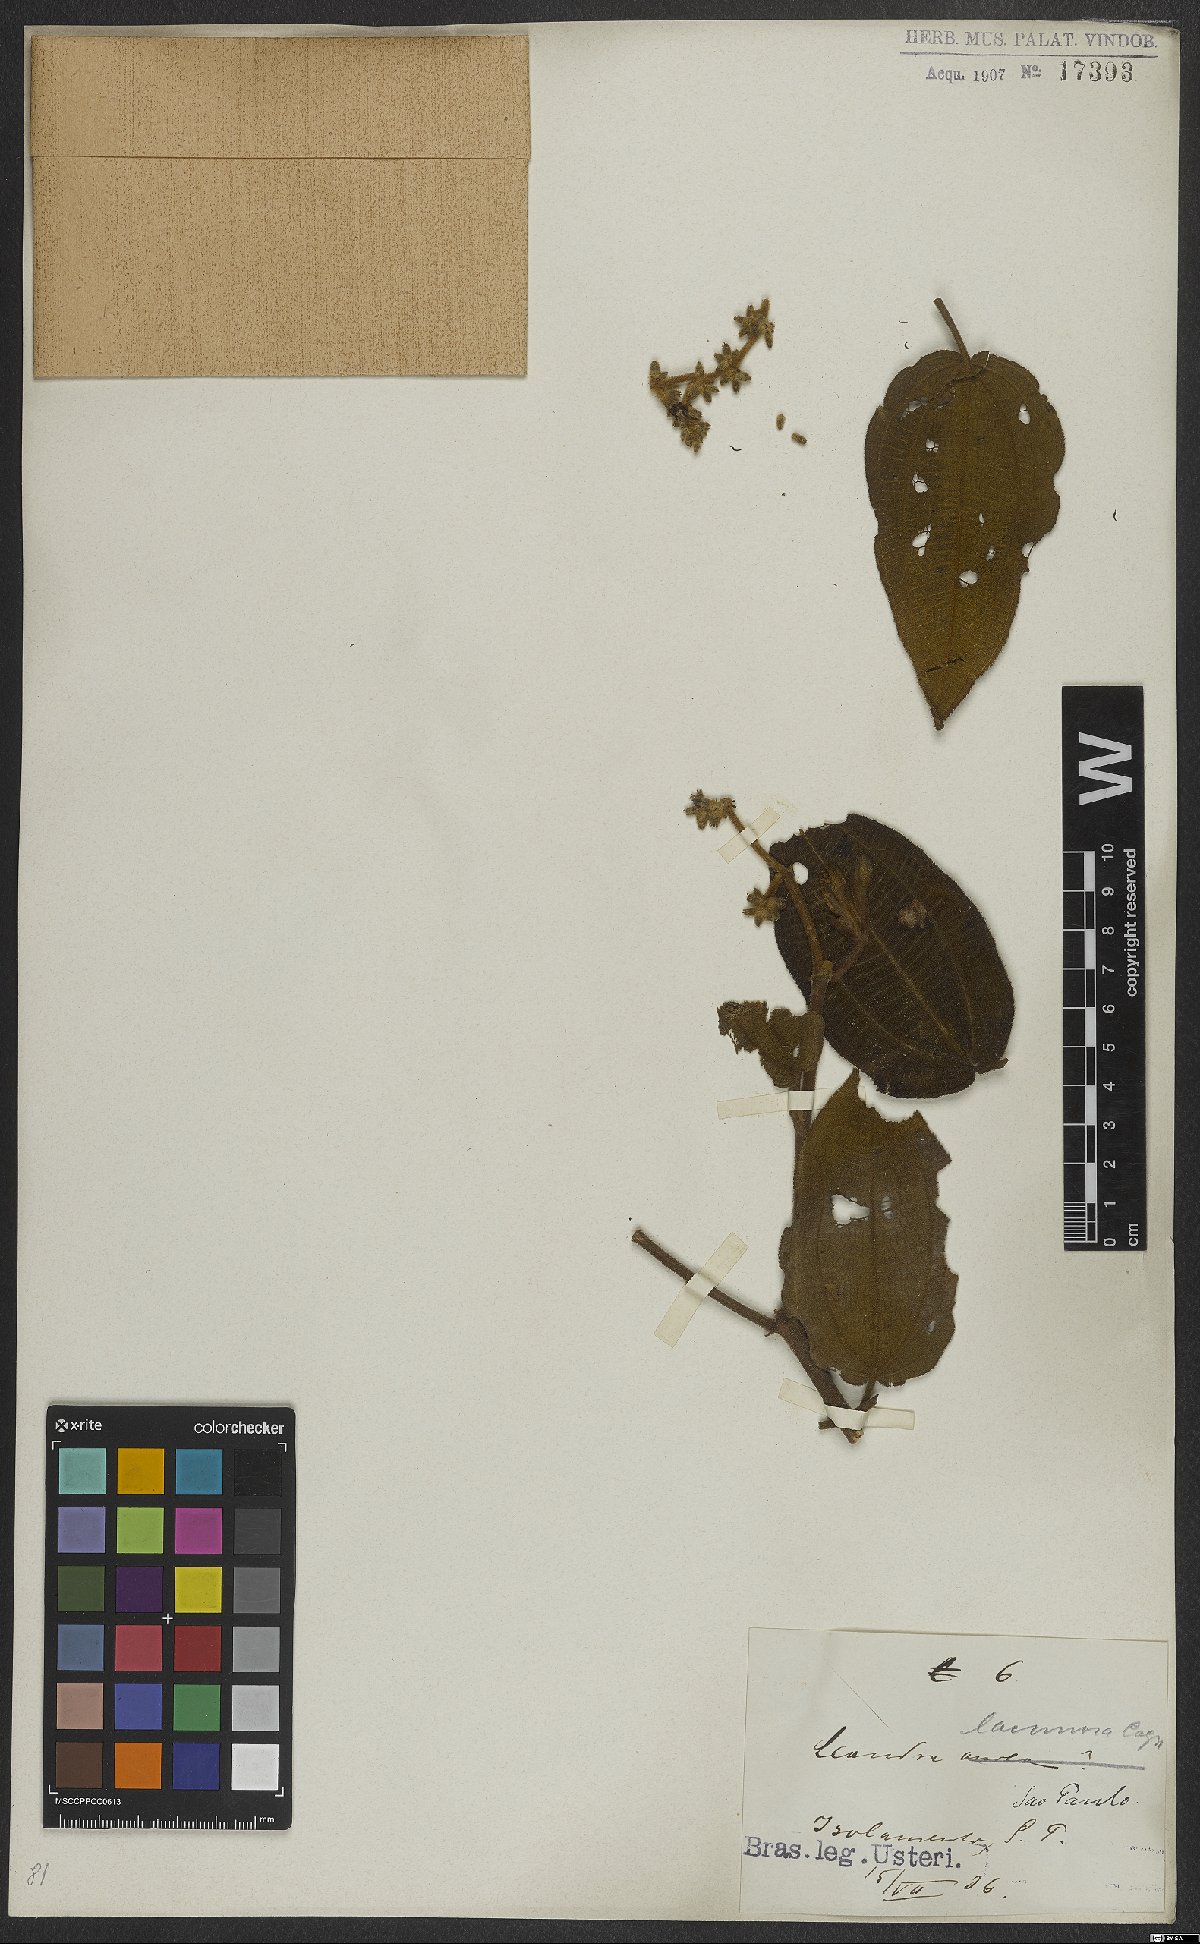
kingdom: Plantae
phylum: Tracheophyta
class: Magnoliopsida
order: Myrtales
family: Melastomataceae
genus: Miconia
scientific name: Miconia lacunosa
